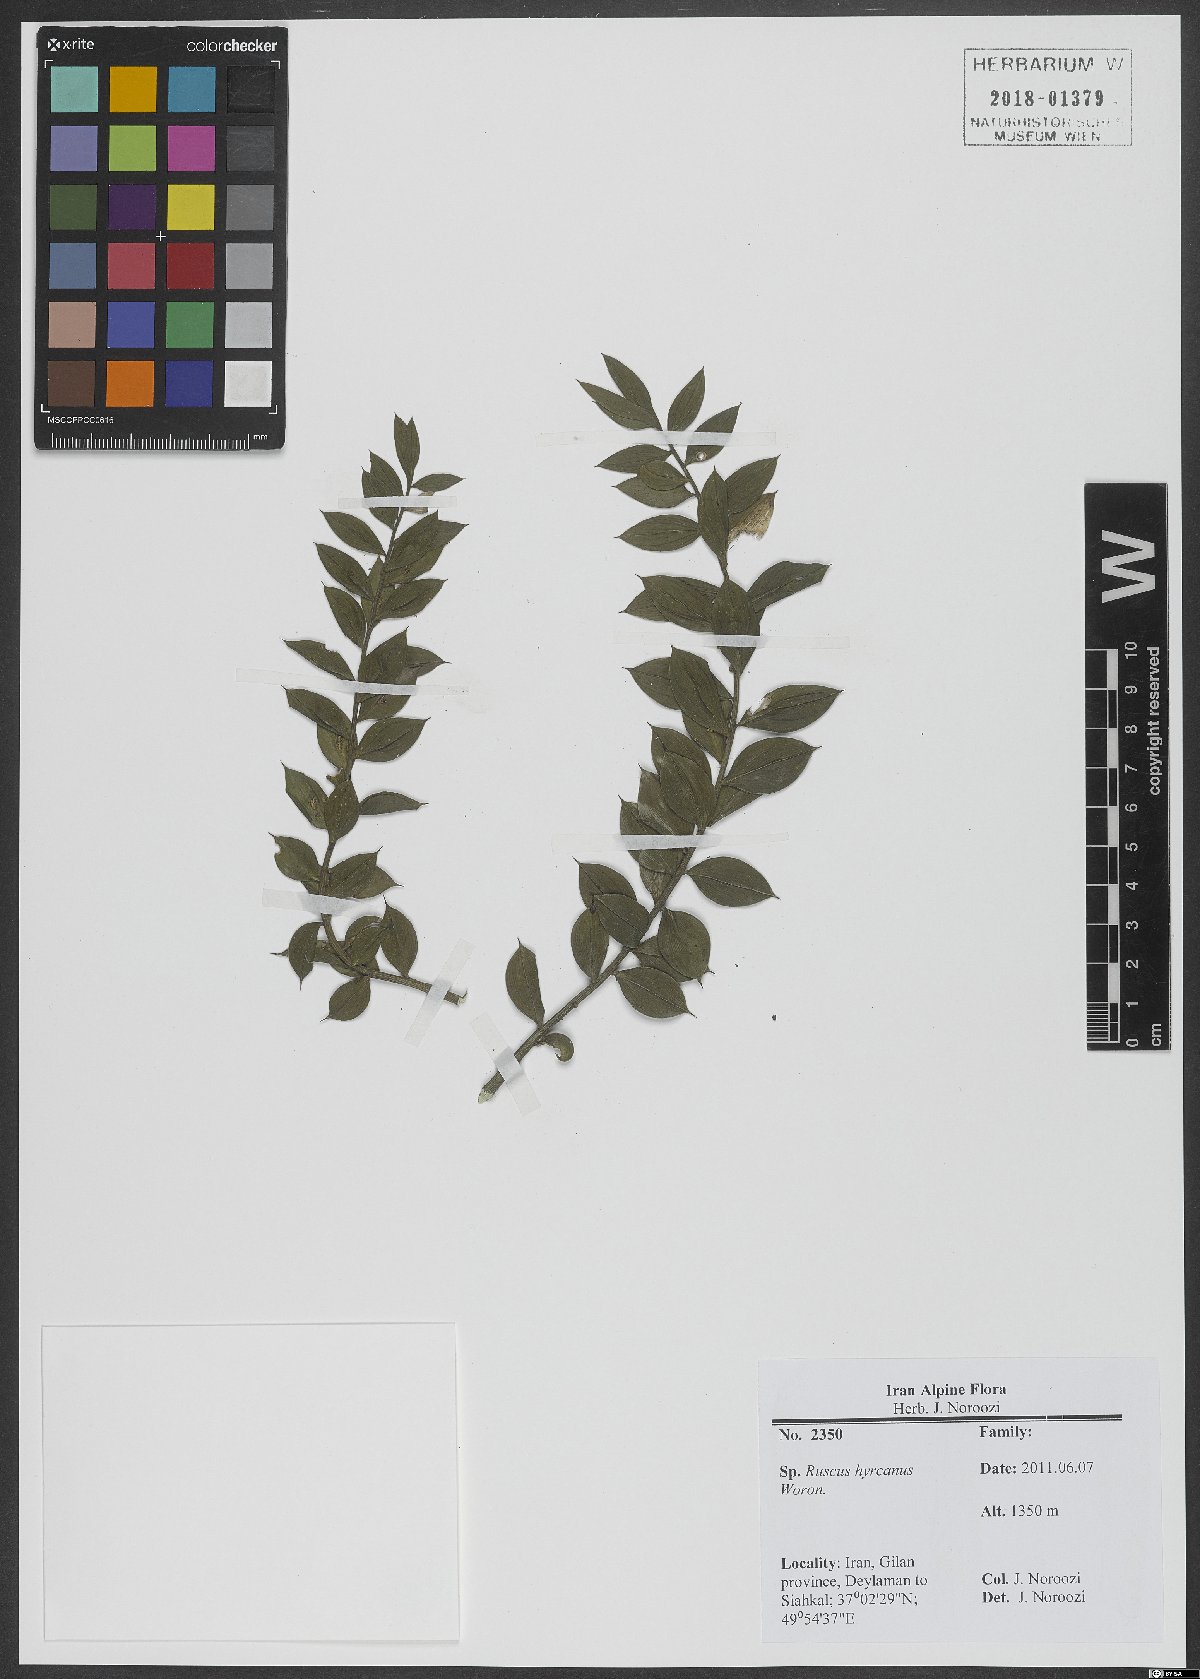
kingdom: Plantae
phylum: Tracheophyta
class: Liliopsida
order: Asparagales
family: Asparagaceae
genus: Ruscus
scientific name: Ruscus hyrcanus
